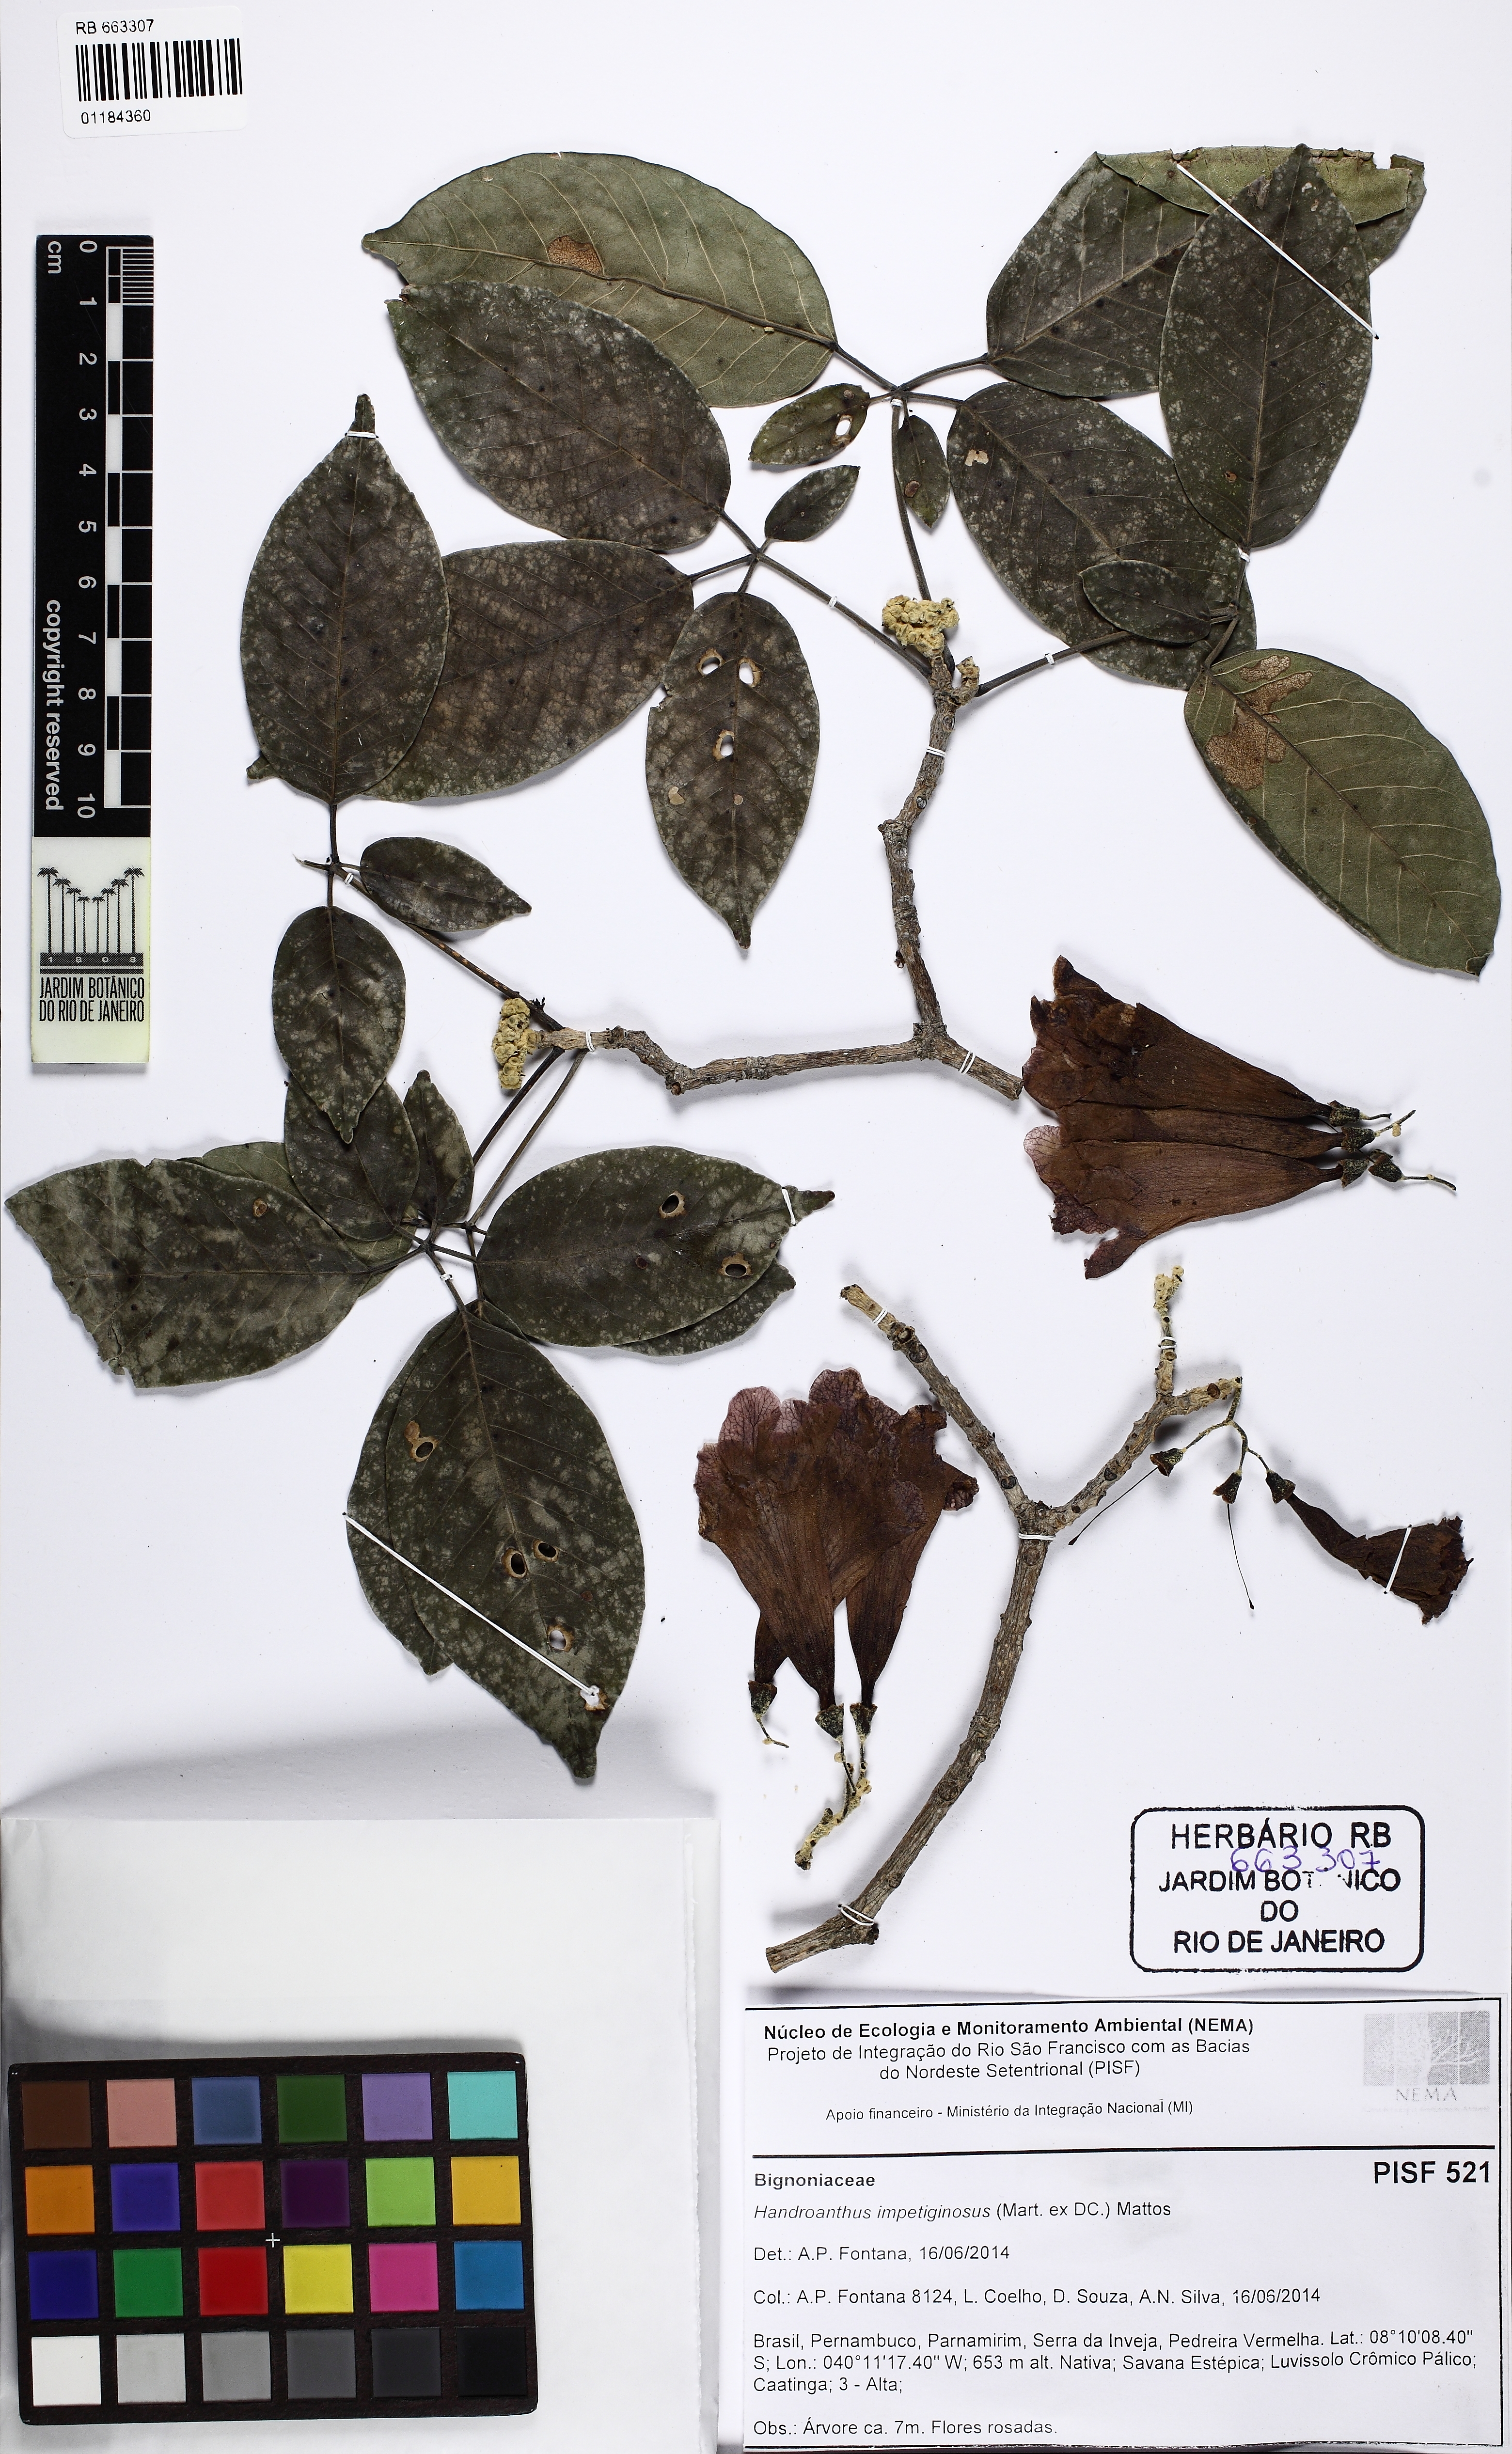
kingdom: Plantae
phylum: Tracheophyta
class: Magnoliopsida
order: Lamiales
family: Bignoniaceae
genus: Handroanthus
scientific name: Handroanthus impetiginosum
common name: Pink trumpet tree
